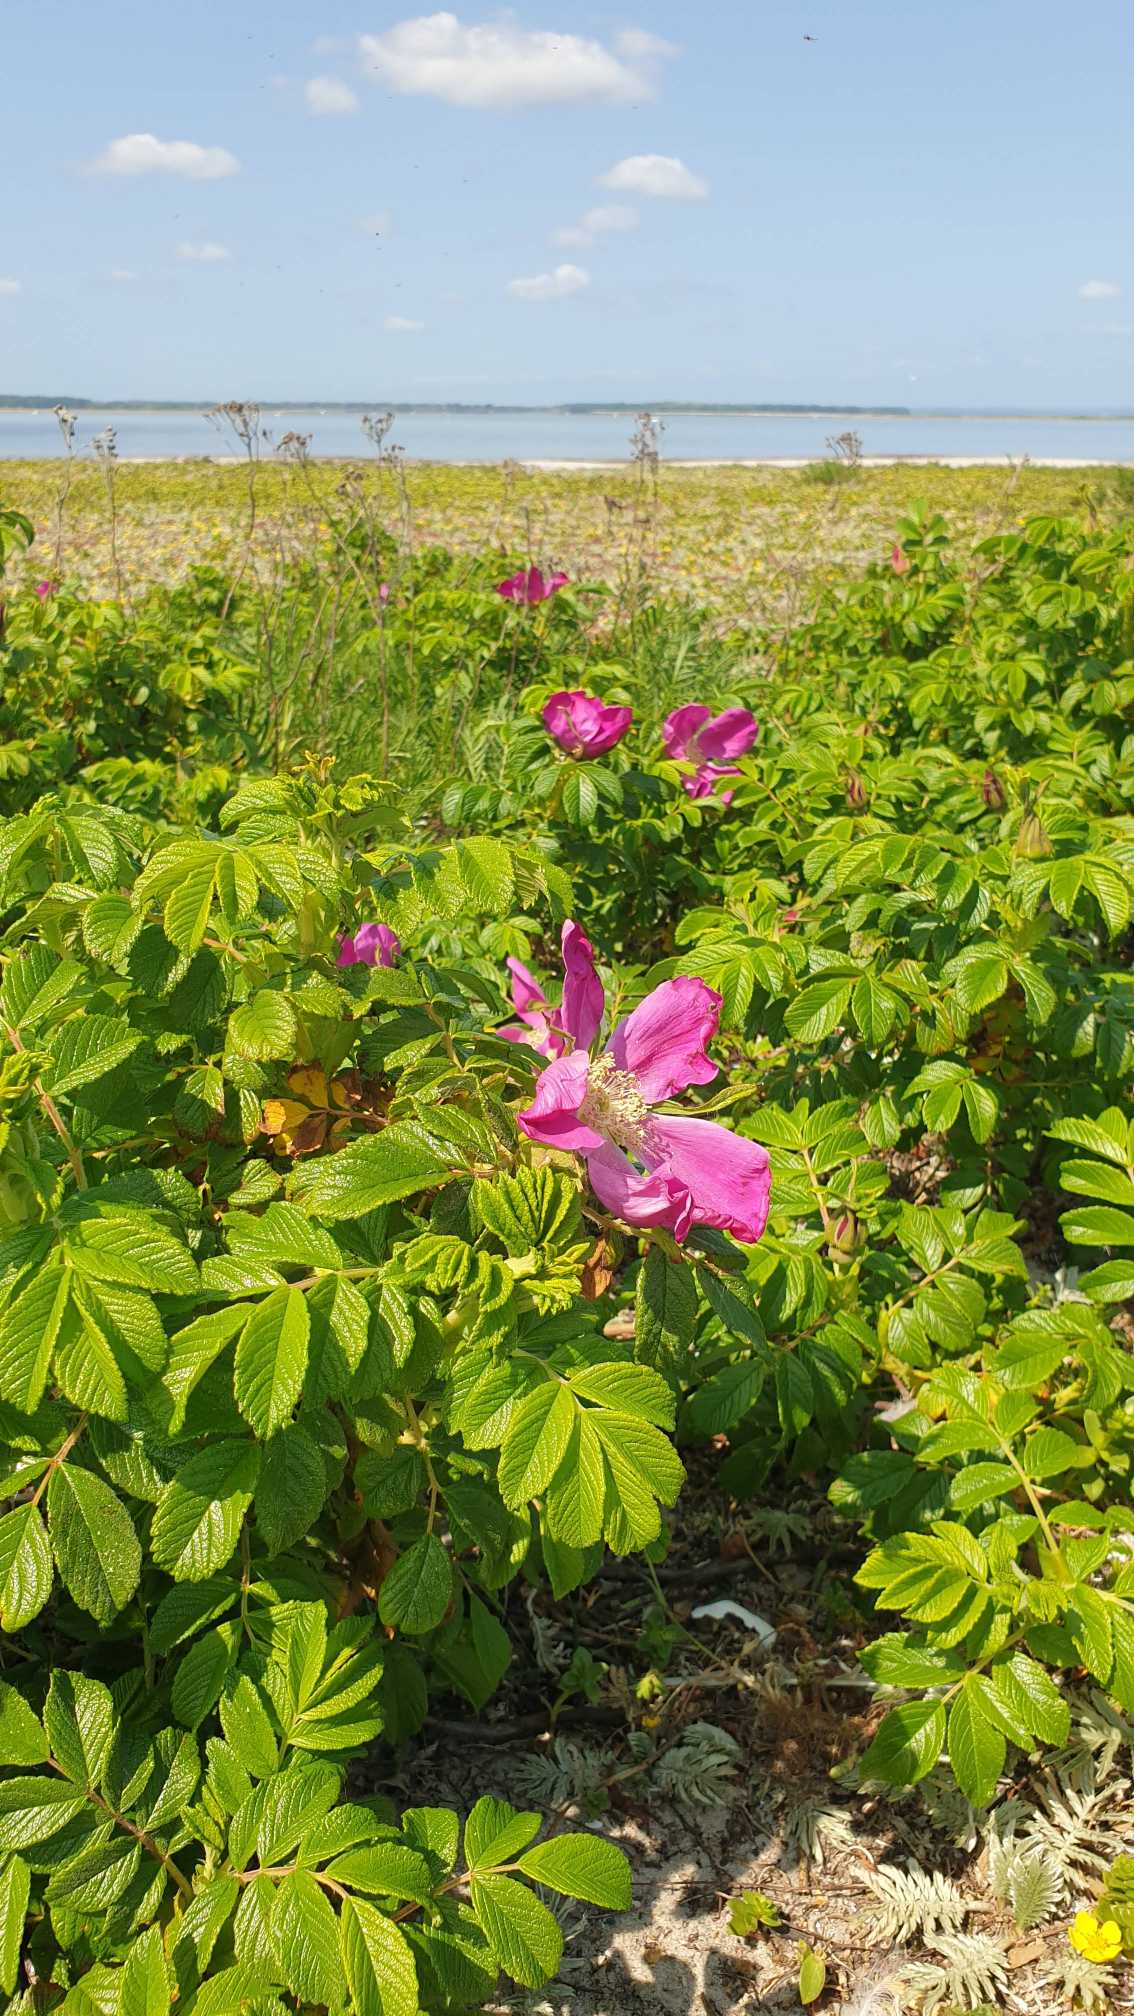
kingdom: Plantae
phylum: Tracheophyta
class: Magnoliopsida
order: Rosales
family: Rosaceae
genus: Rosa
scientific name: Rosa rugosa
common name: Rynket rose
